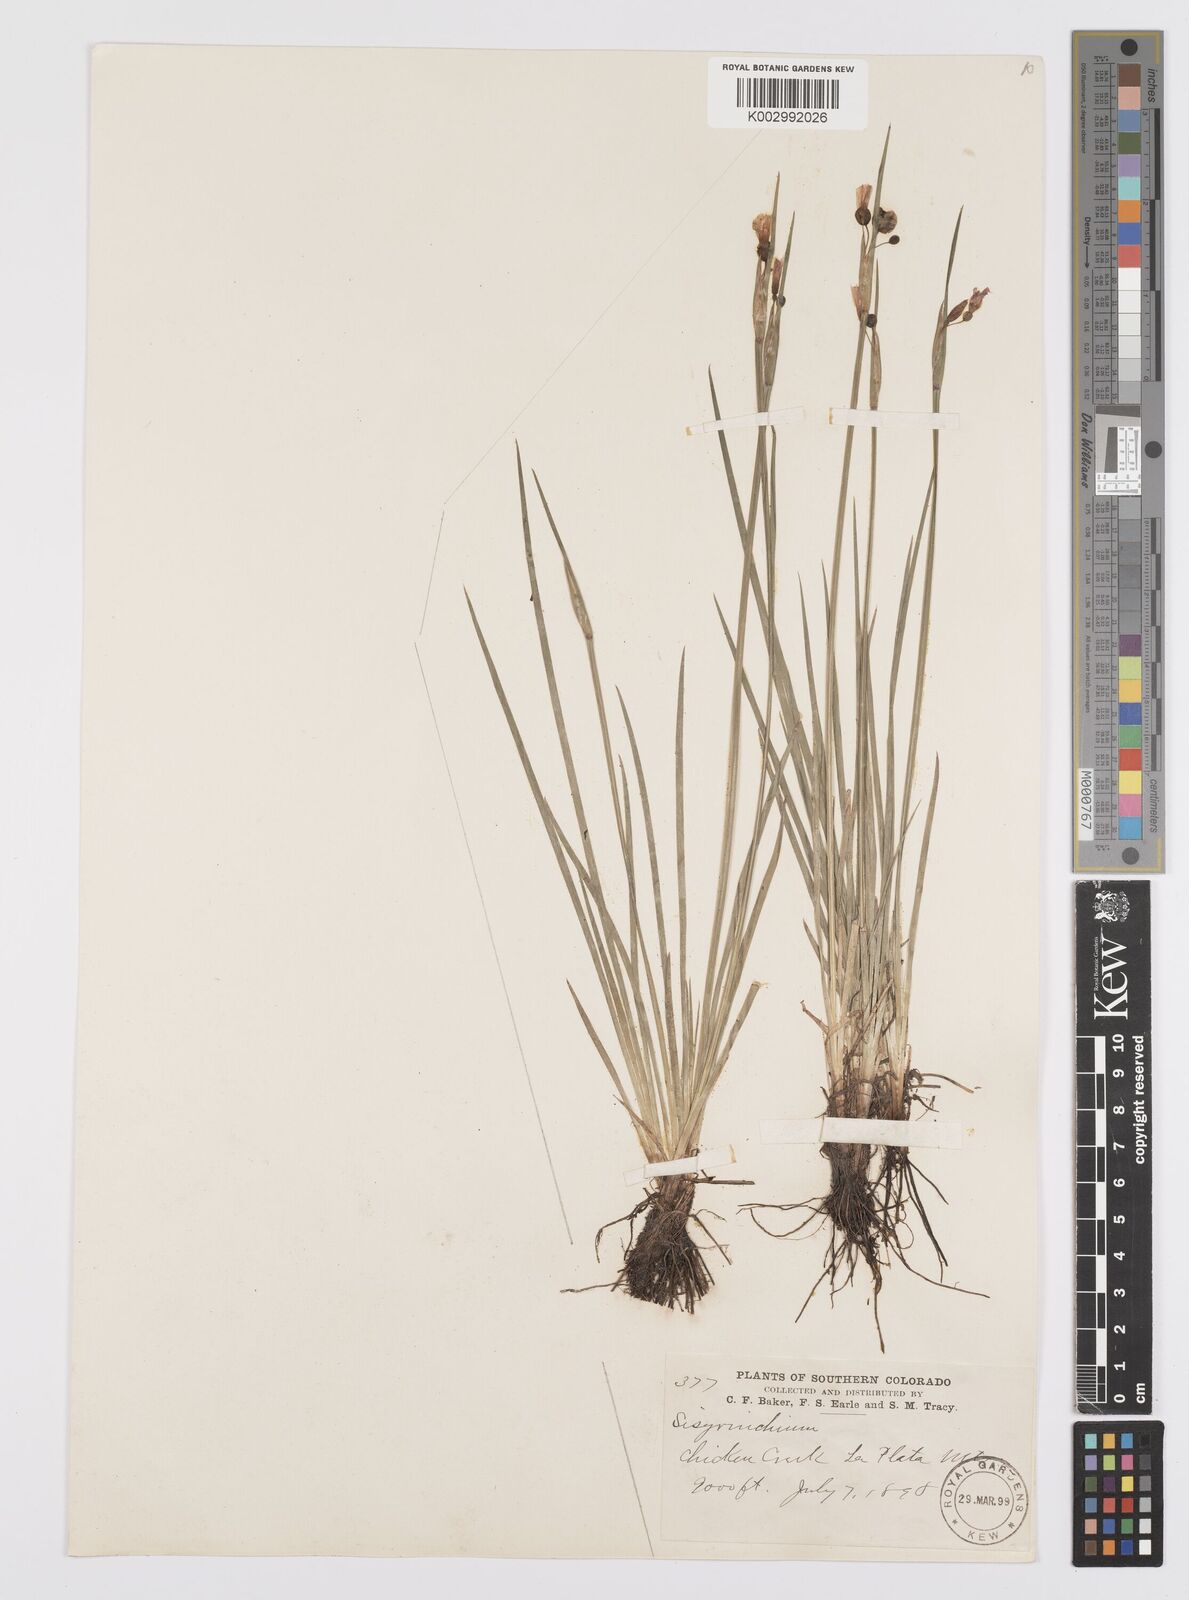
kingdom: Plantae
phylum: Tracheophyta
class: Liliopsida
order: Asparagales
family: Iridaceae
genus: Sisyrinchium
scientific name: Sisyrinchium
